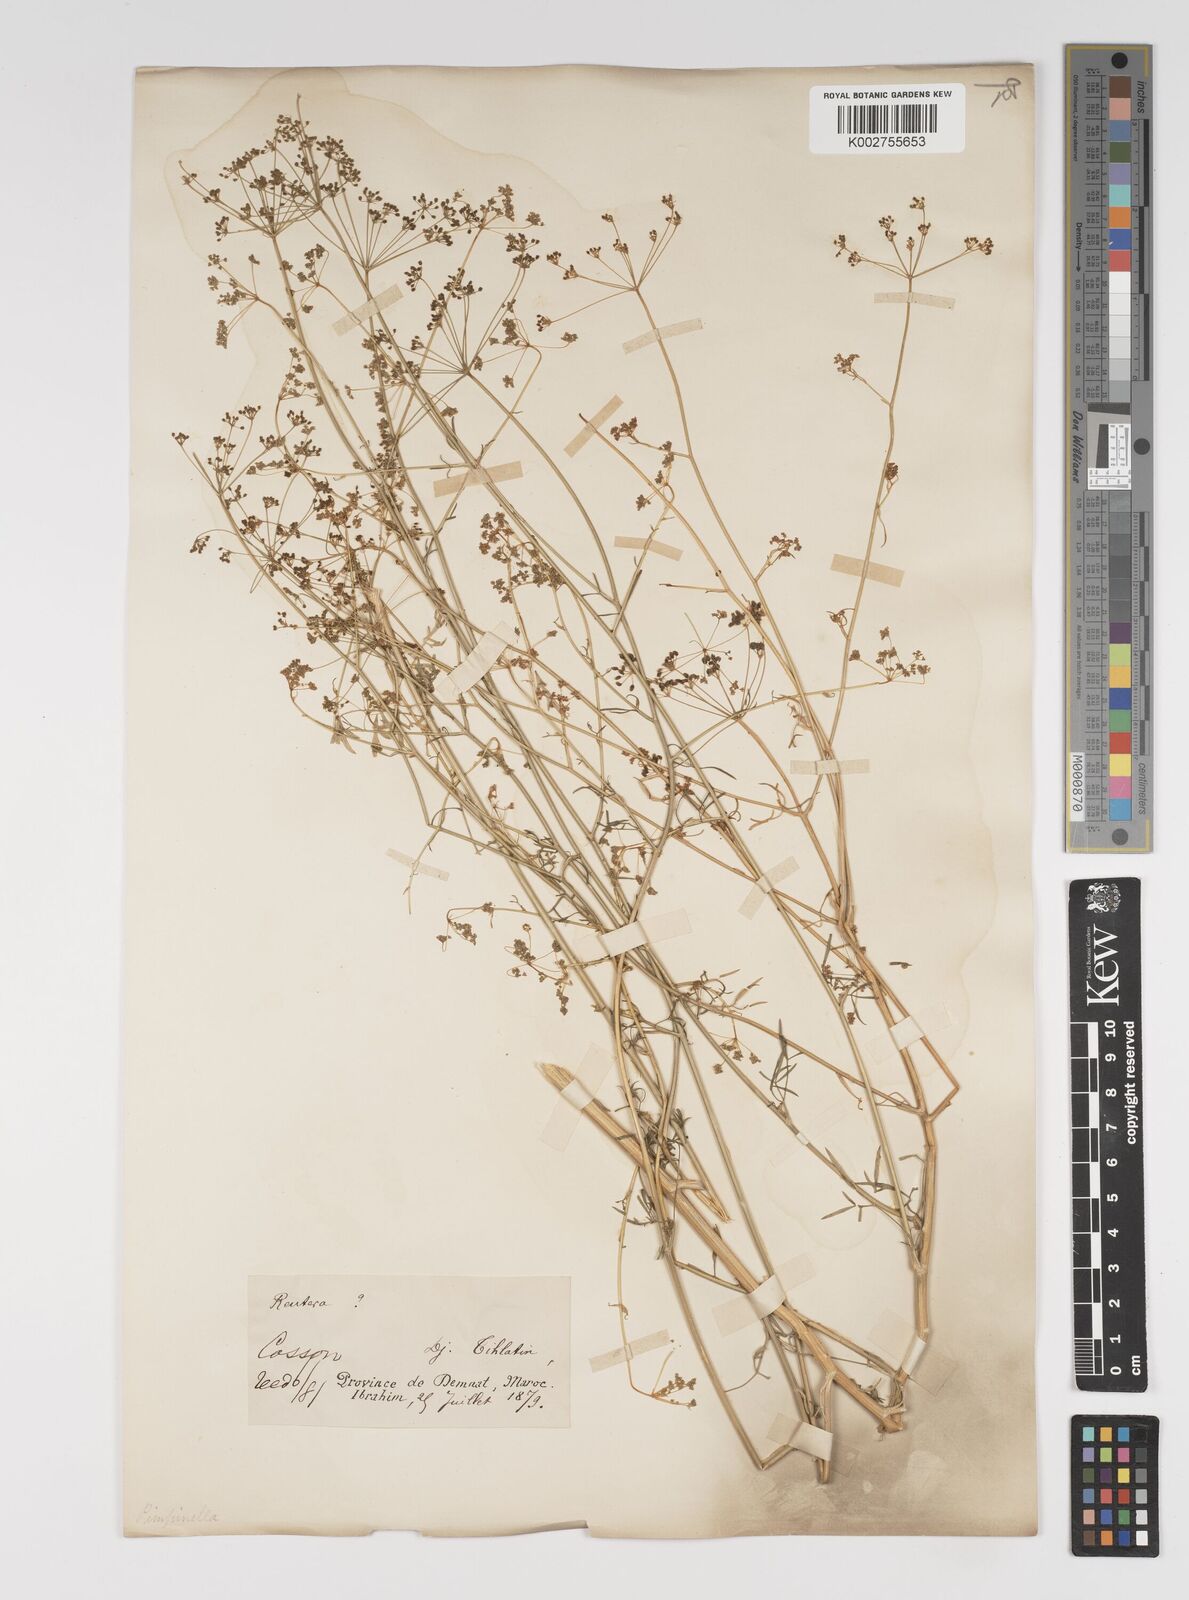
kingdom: Plantae
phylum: Tracheophyta
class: Magnoliopsida
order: Apiales
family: Apiaceae
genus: Pimpinella
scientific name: Pimpinella
